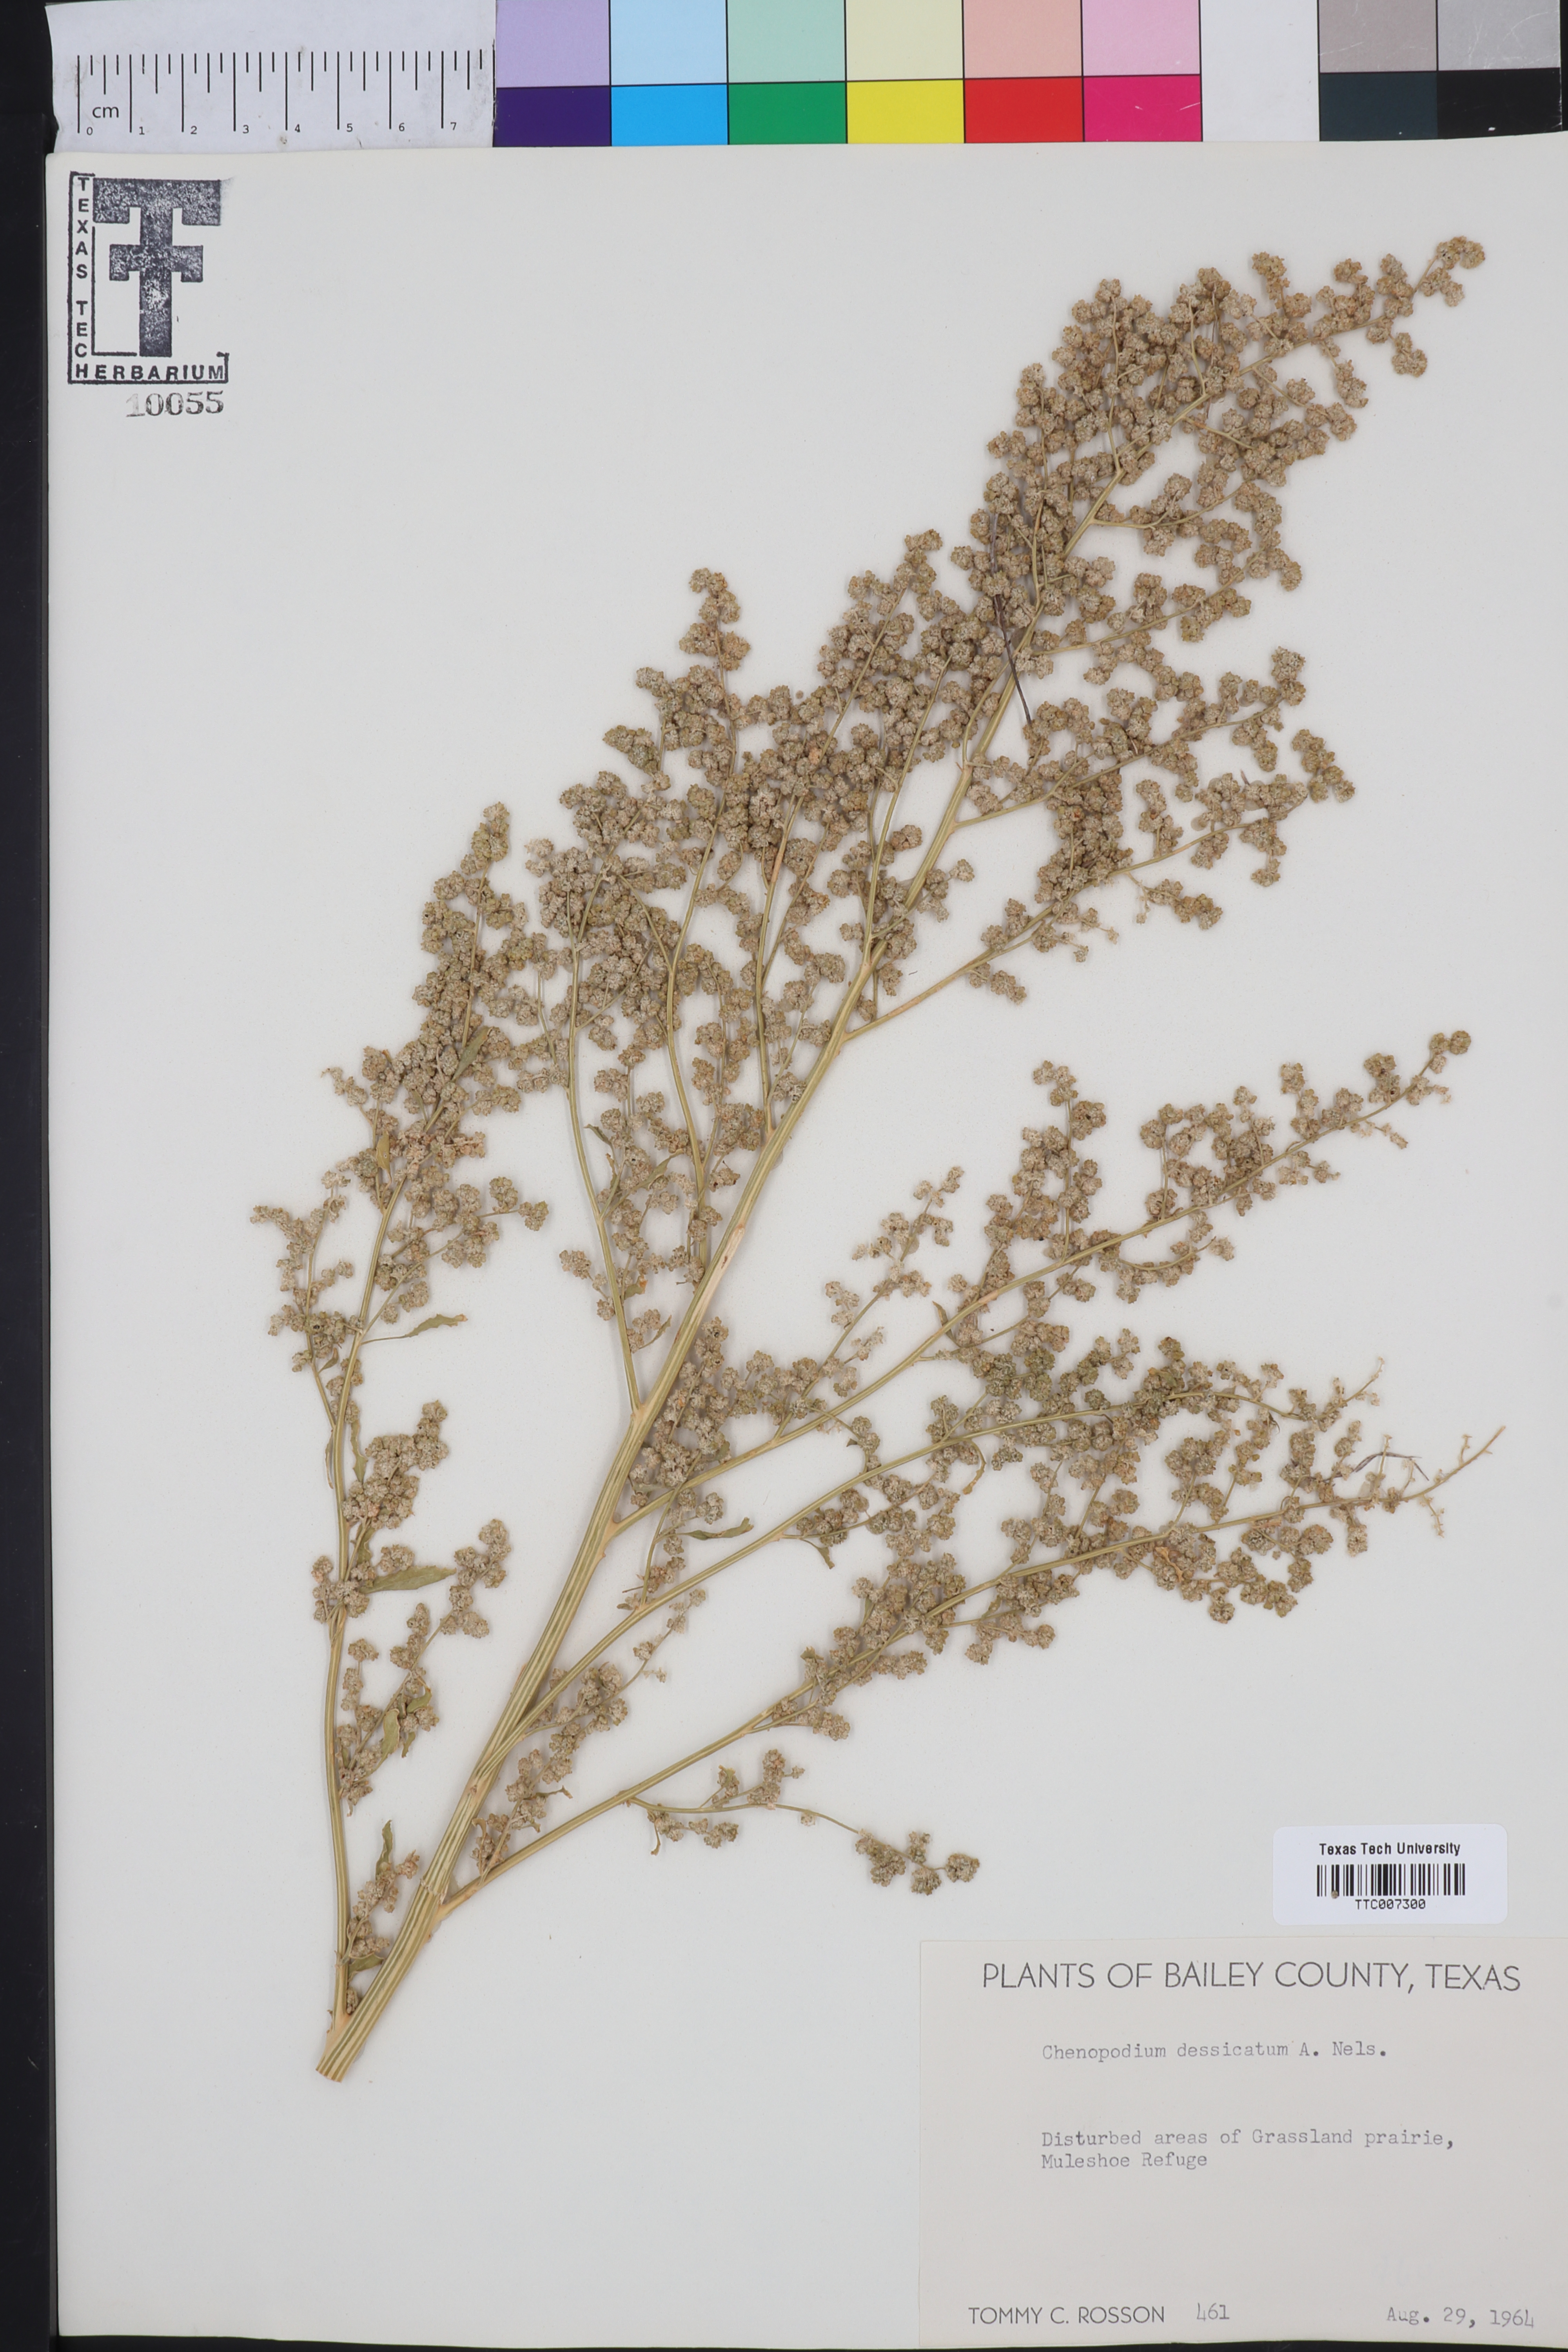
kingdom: Plantae
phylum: Tracheophyta
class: Magnoliopsida
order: Caryophyllales
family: Amaranthaceae
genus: Chenopodium
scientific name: Chenopodium desiccatum
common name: Slimleaf goosefoot
